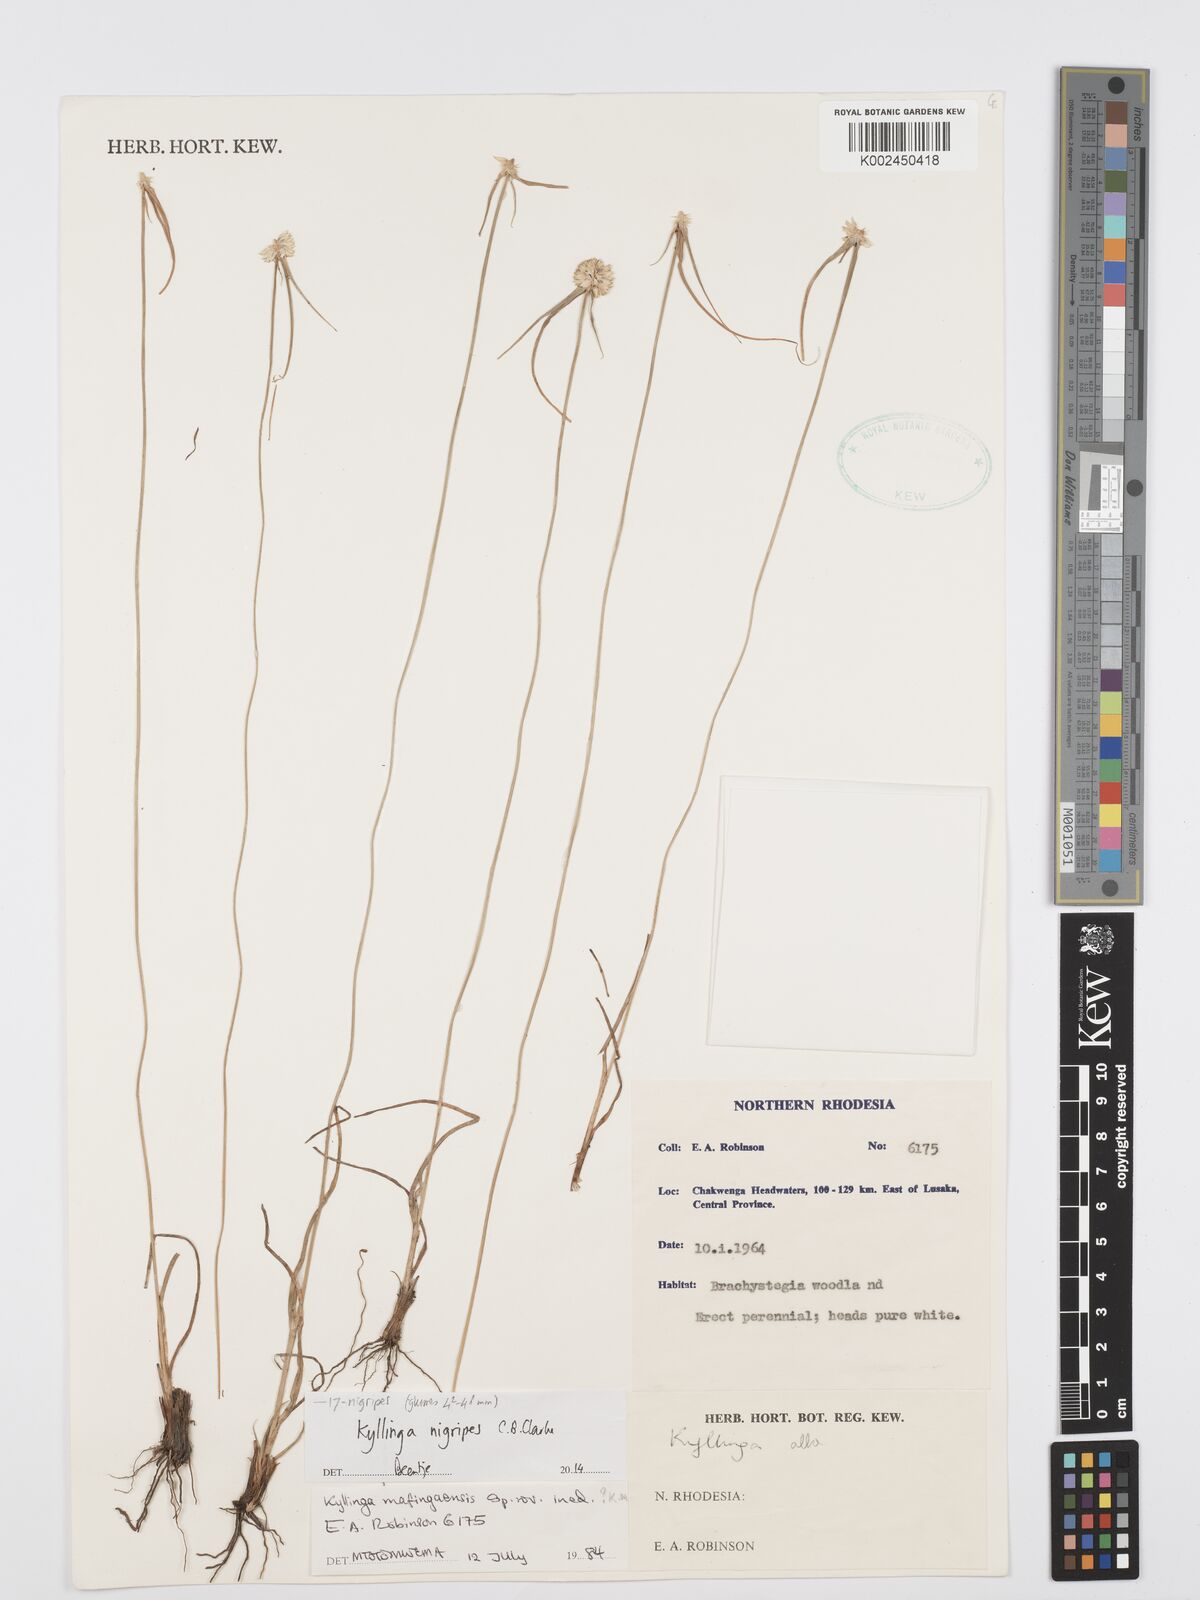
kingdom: Plantae
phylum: Tracheophyta
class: Liliopsida
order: Poales
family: Cyperaceae
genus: Cyperus
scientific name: Cyperus nigripes
